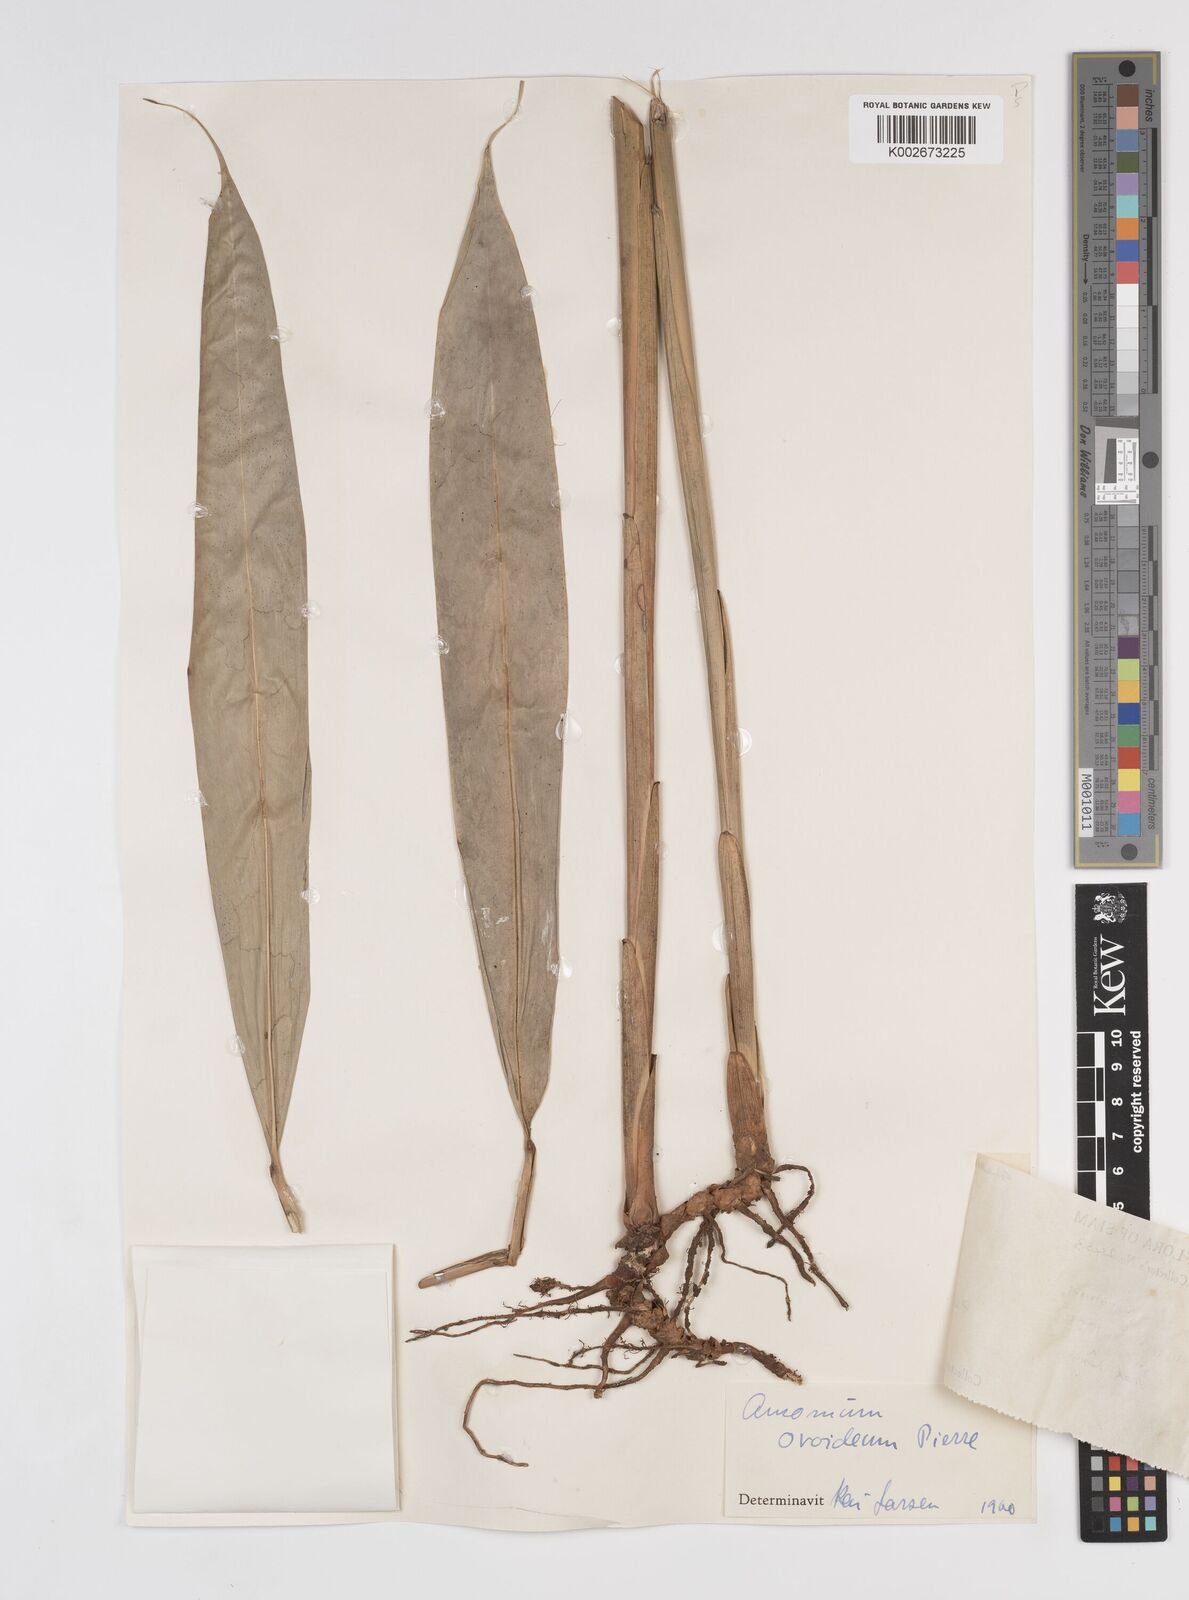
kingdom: Plantae
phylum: Tracheophyta
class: Liliopsida
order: Zingiberales
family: Zingiberaceae
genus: Wurfbainia
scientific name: Wurfbainia uliginosa
